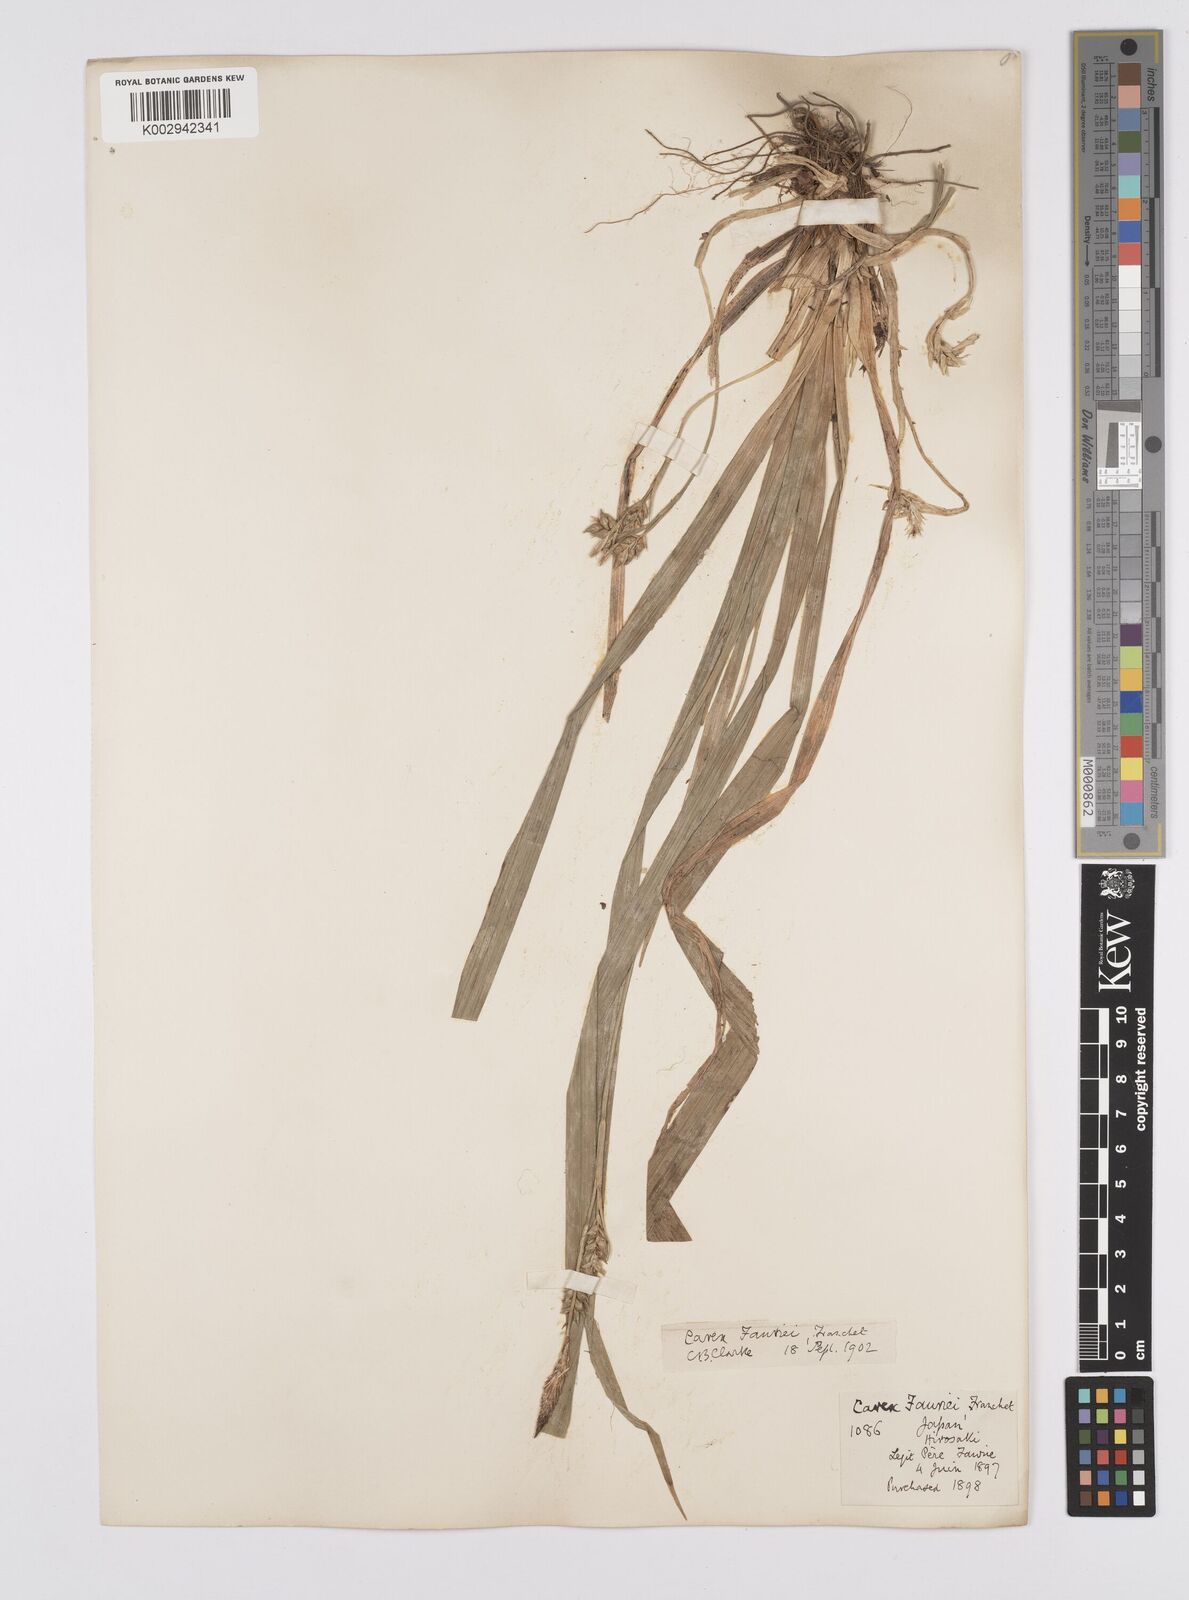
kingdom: Plantae
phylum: Tracheophyta
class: Liliopsida
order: Poales
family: Cyperaceae
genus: Carex
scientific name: Carex phacota
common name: Lakeshore sedge
